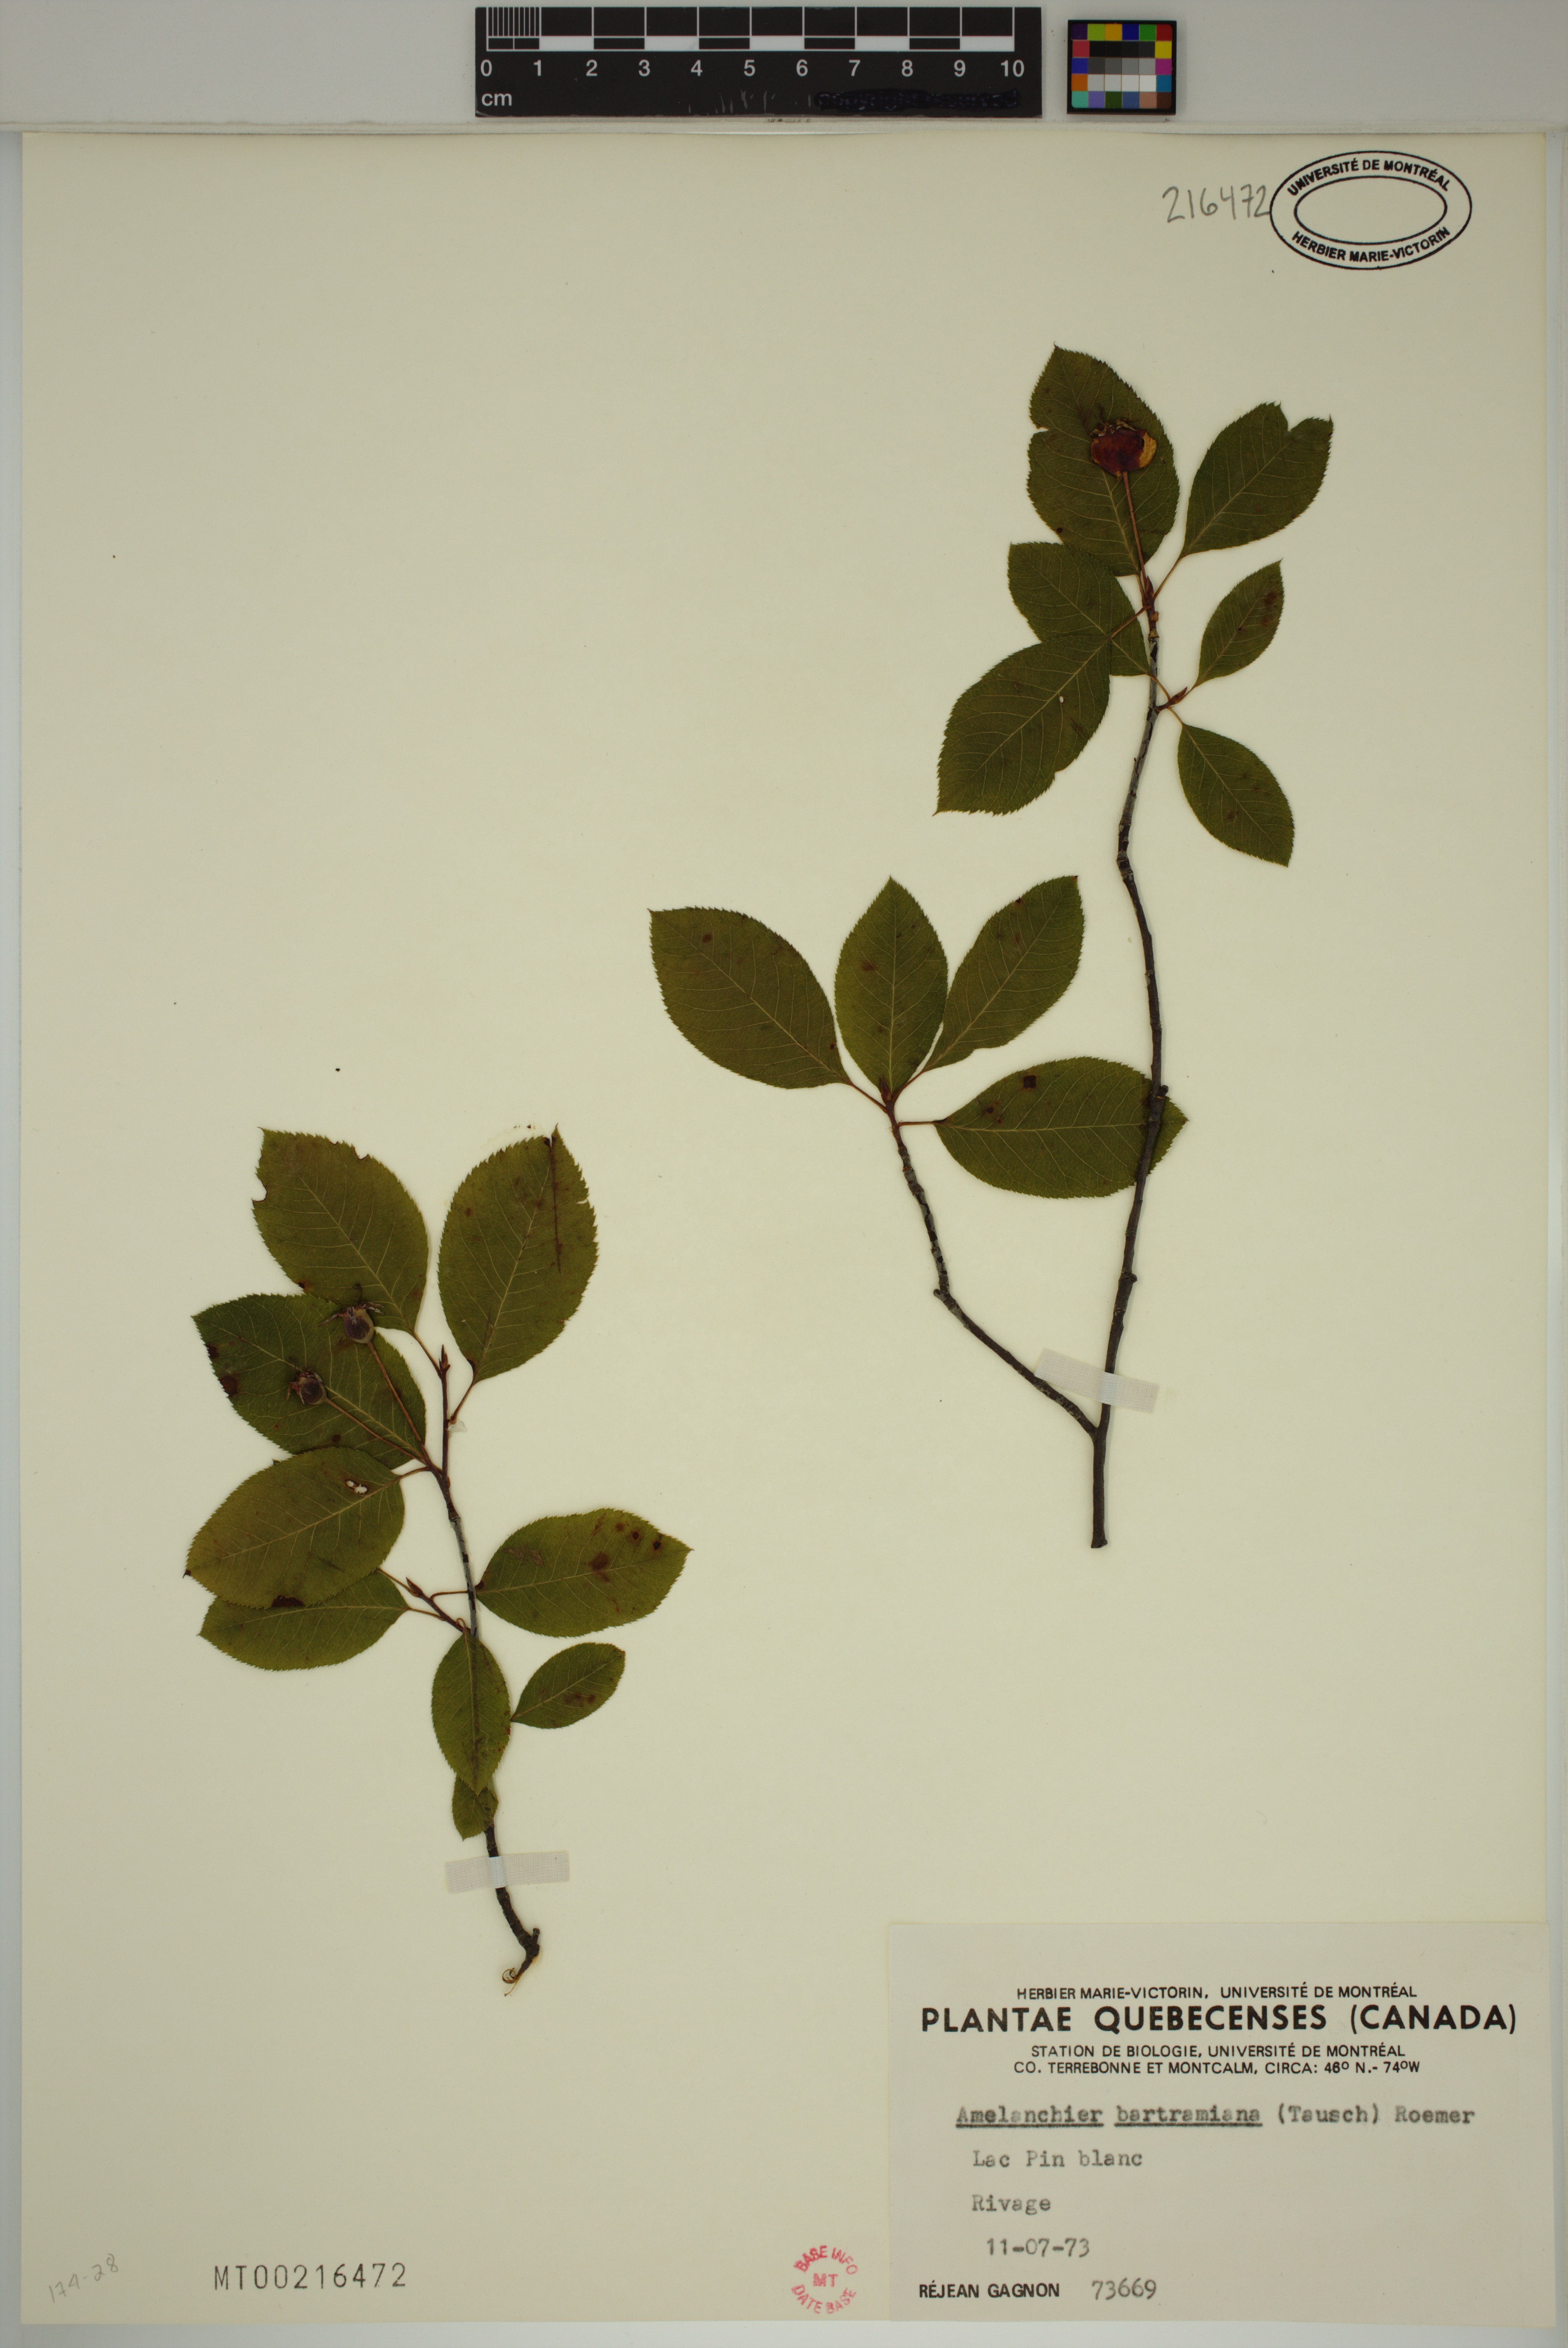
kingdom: Plantae
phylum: Tracheophyta
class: Magnoliopsida
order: Rosales
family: Rosaceae
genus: Amelanchier
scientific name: Amelanchier bartramiana
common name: Mountain serviceberry
